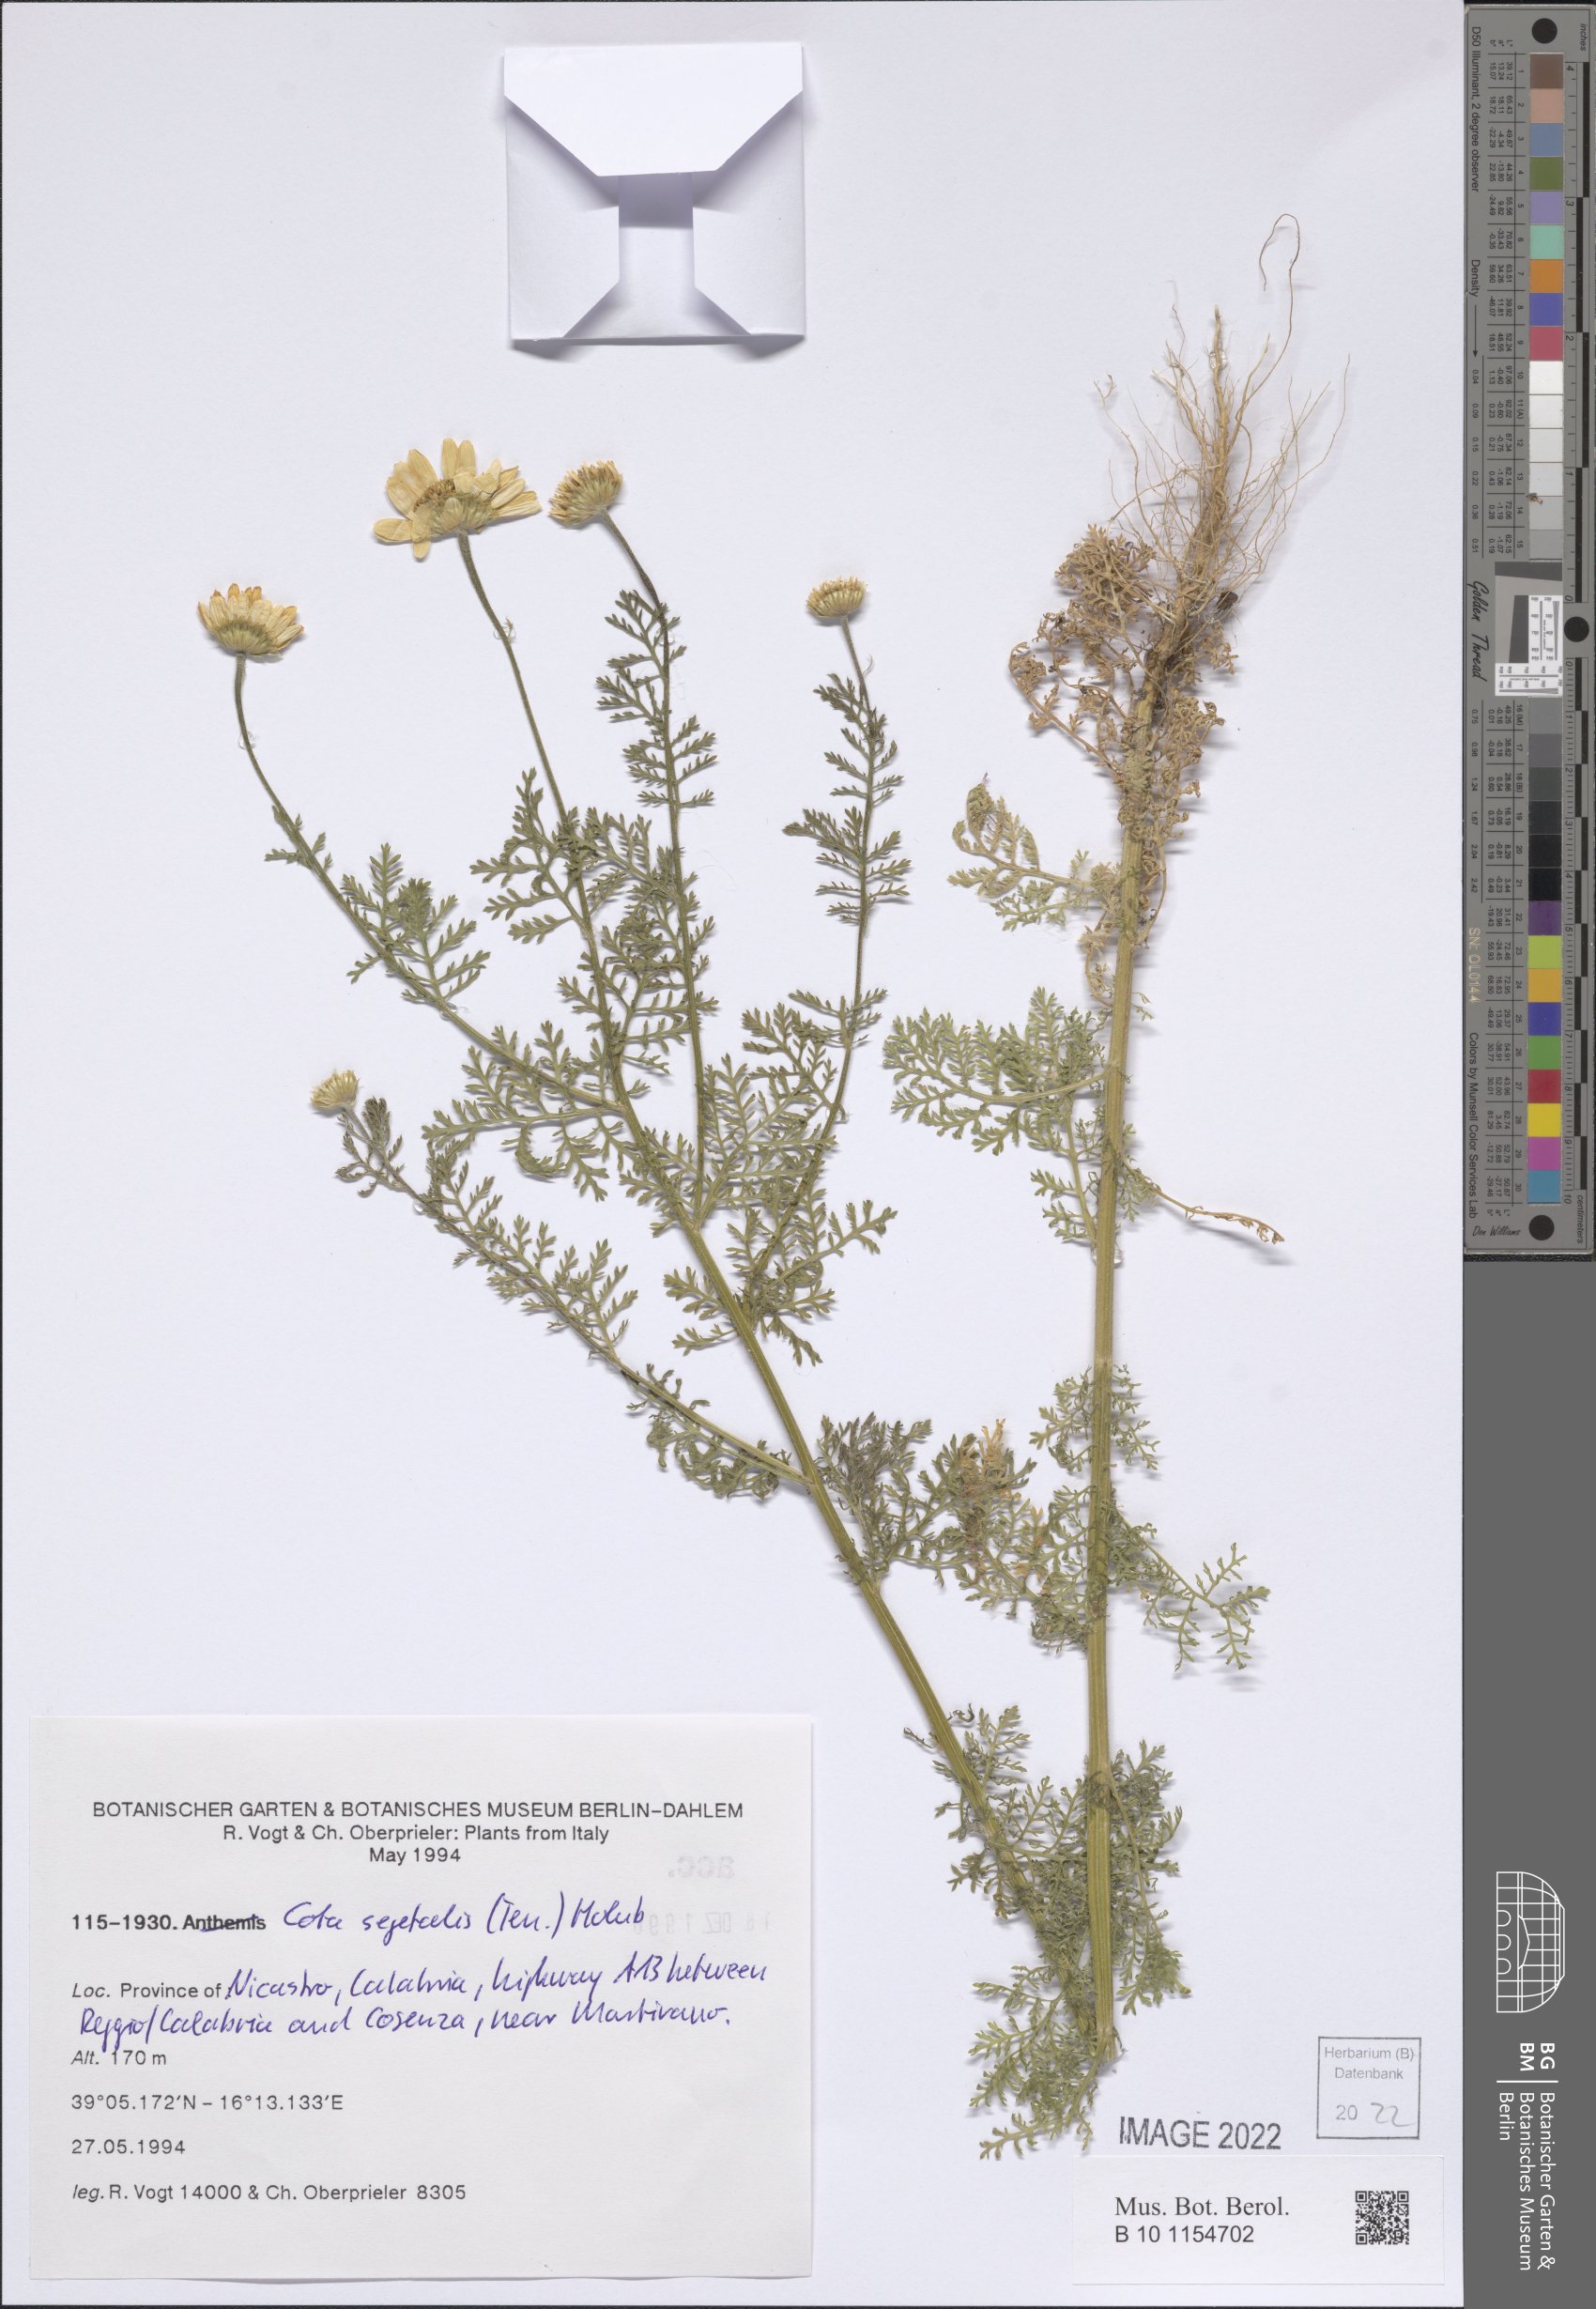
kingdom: Plantae
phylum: Tracheophyta
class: Magnoliopsida
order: Asterales
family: Asteraceae
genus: Cota
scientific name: Cota segetalis
